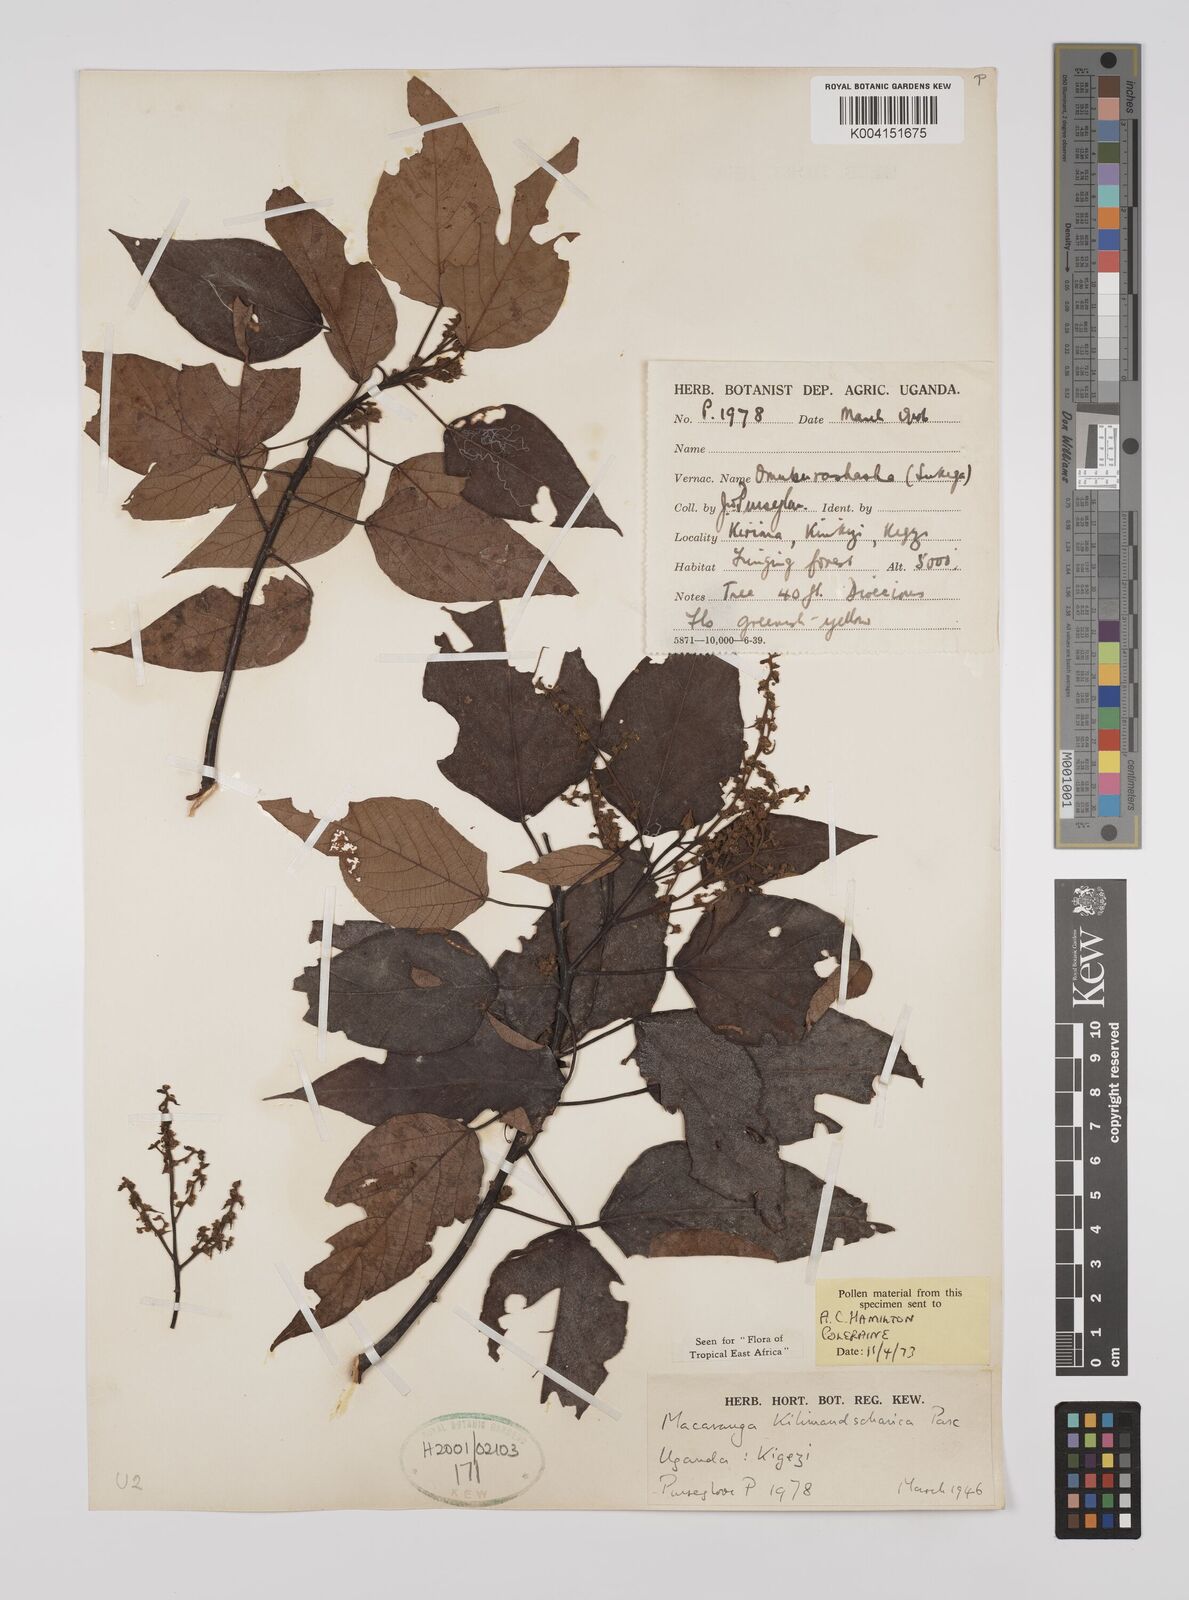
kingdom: Plantae
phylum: Tracheophyta
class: Magnoliopsida
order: Malpighiales
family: Euphorbiaceae
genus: Macaranga
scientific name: Macaranga kilimandscharica
